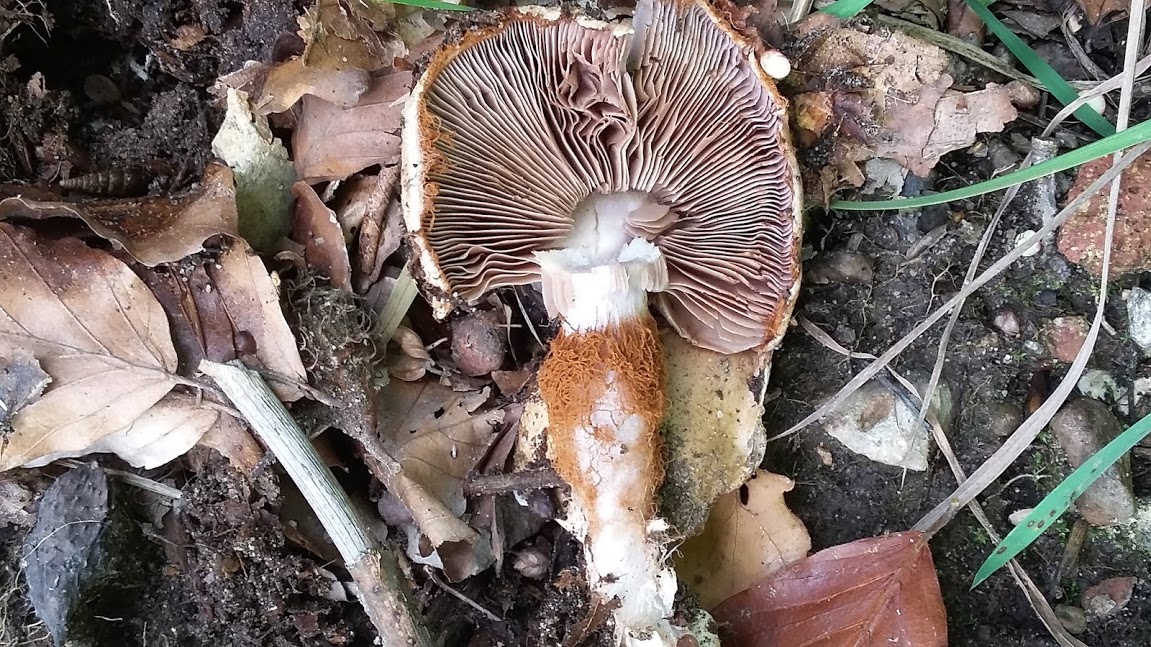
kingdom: Fungi
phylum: Basidiomycota
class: Agaricomycetes
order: Agaricales
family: Cortinariaceae
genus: Cortinarius
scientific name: Cortinarius
